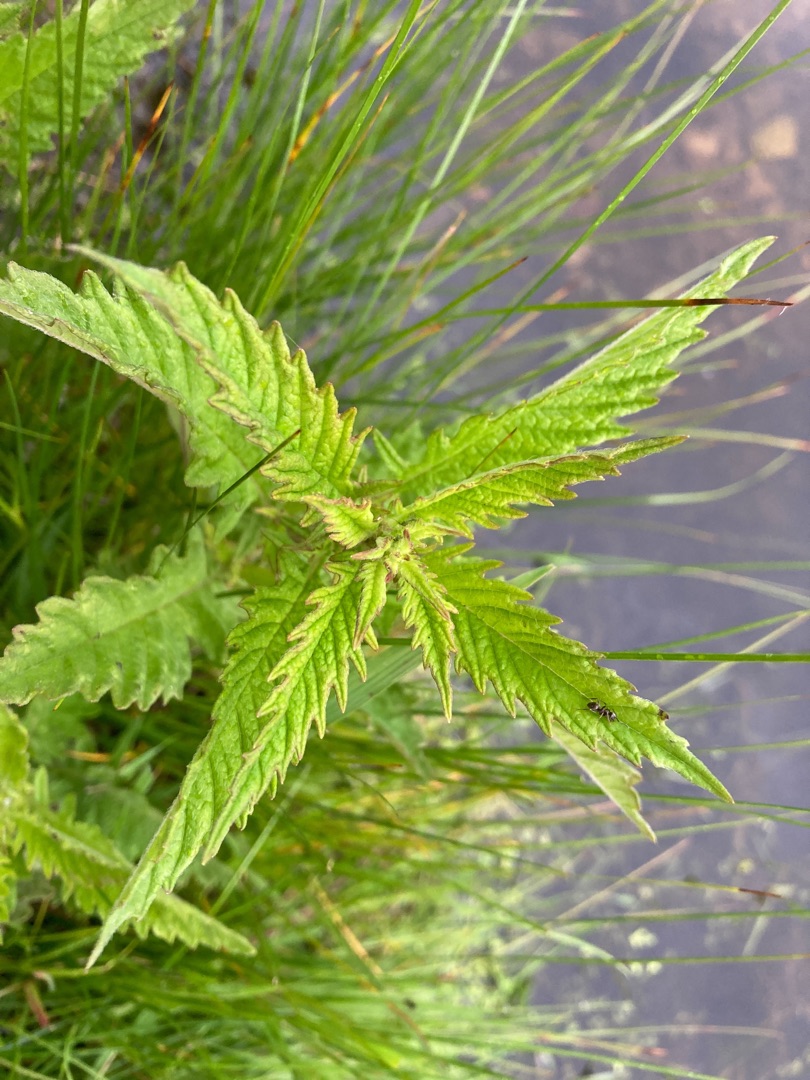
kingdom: Plantae
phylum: Tracheophyta
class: Magnoliopsida
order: Lamiales
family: Lamiaceae
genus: Lycopus
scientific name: Lycopus europaeus
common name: Sværtevæld
